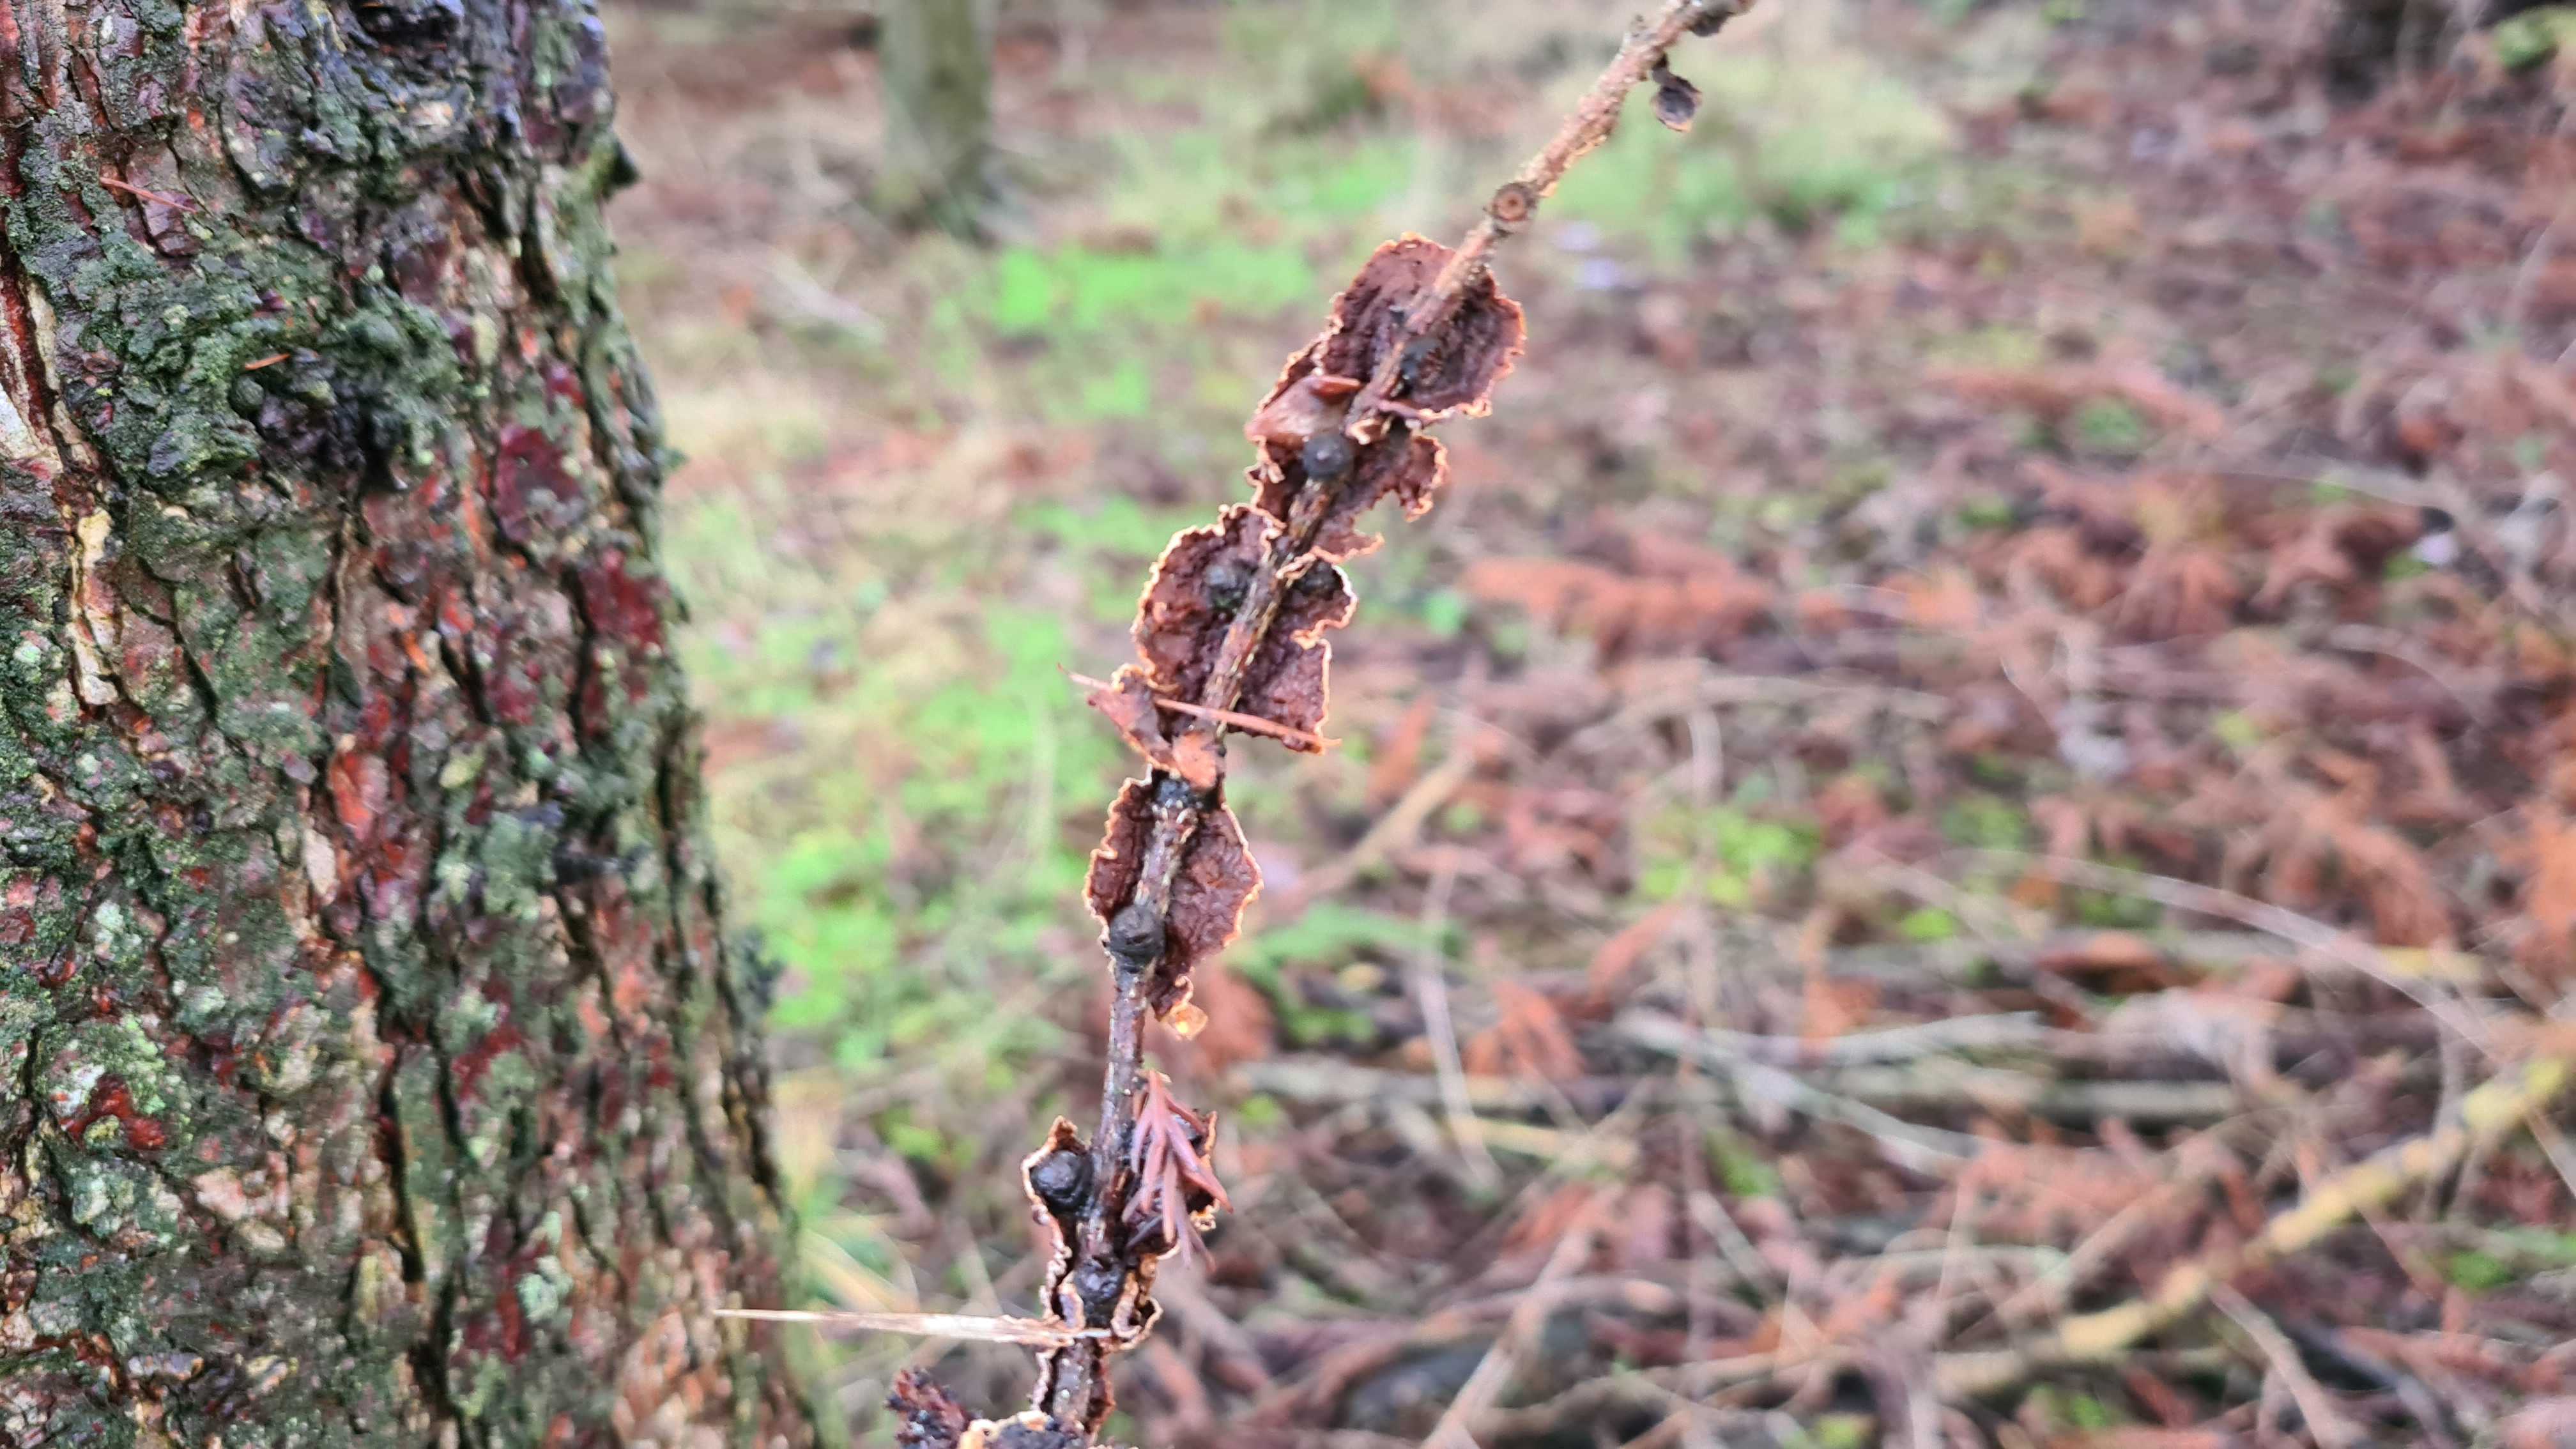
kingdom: Fungi
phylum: Basidiomycota
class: Agaricomycetes
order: Hymenochaetales
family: Hymenochaetaceae
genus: Hydnoporia
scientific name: Hydnoporia tabacina
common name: tobaksbrun ruslædersvamp
